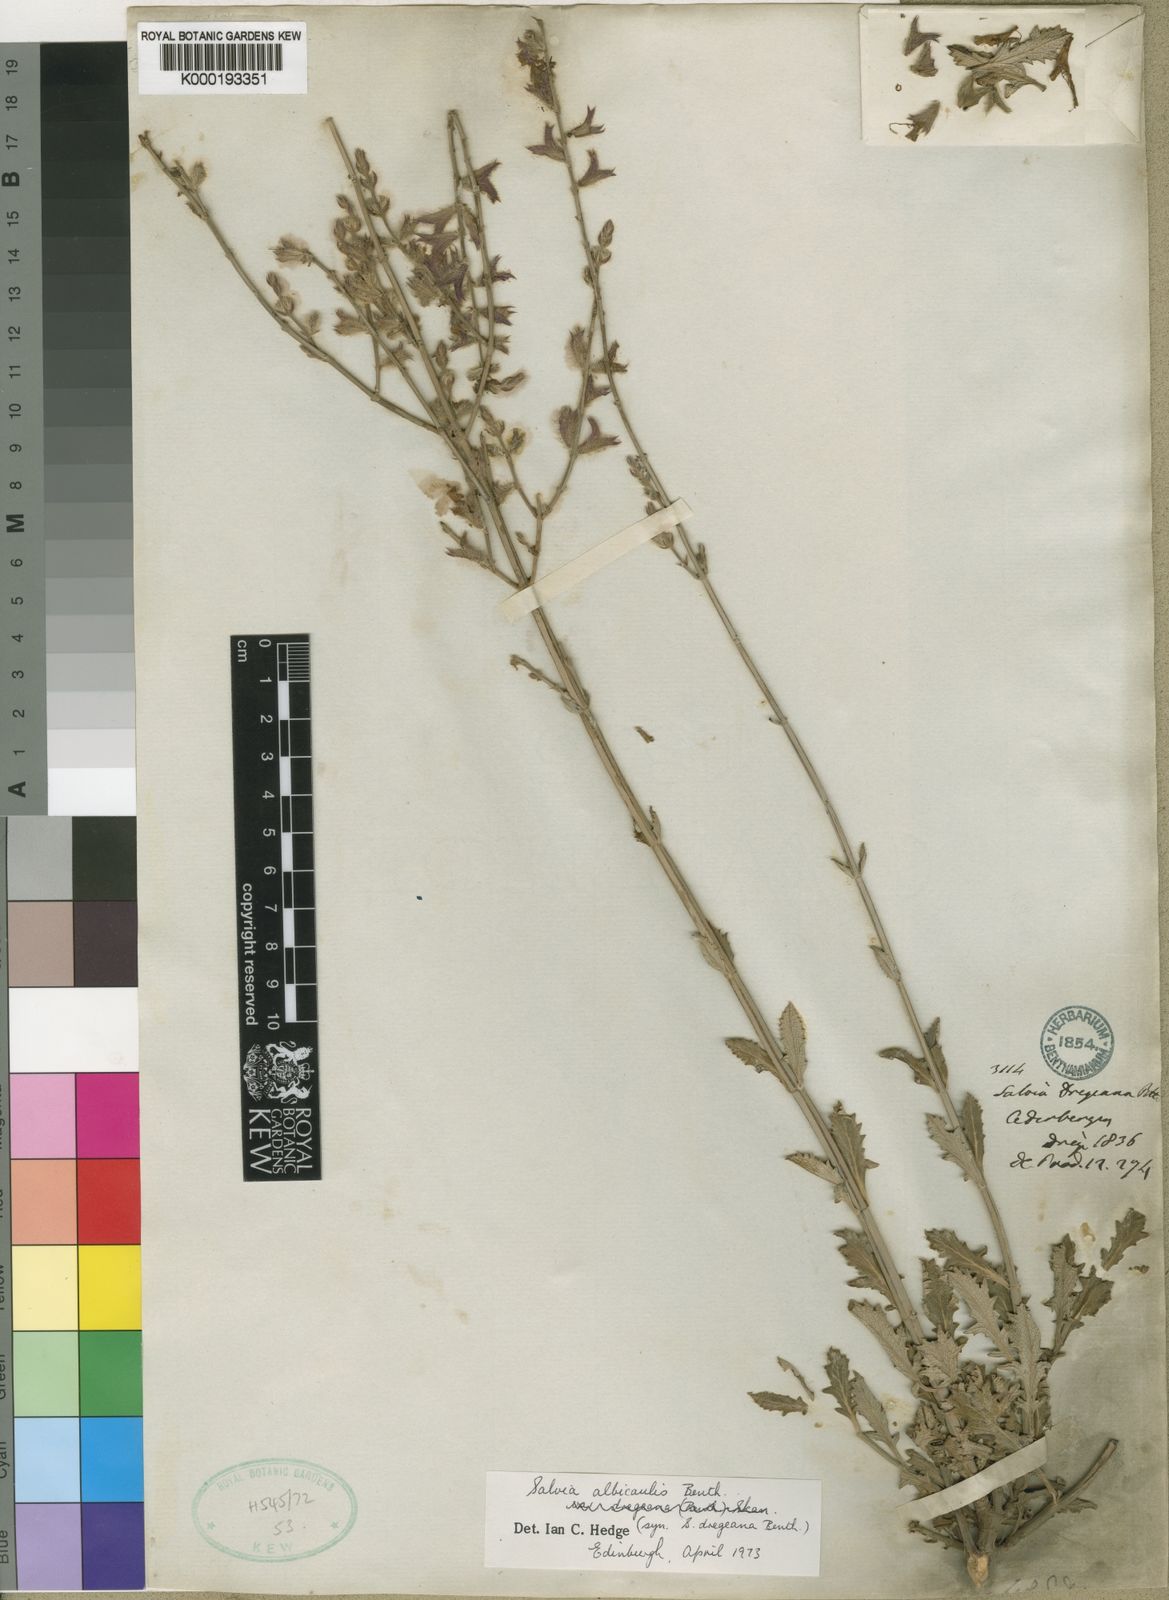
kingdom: Plantae
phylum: Tracheophyta
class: Magnoliopsida
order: Lamiales
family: Lamiaceae
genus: Salvia
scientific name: Salvia albicaulis
